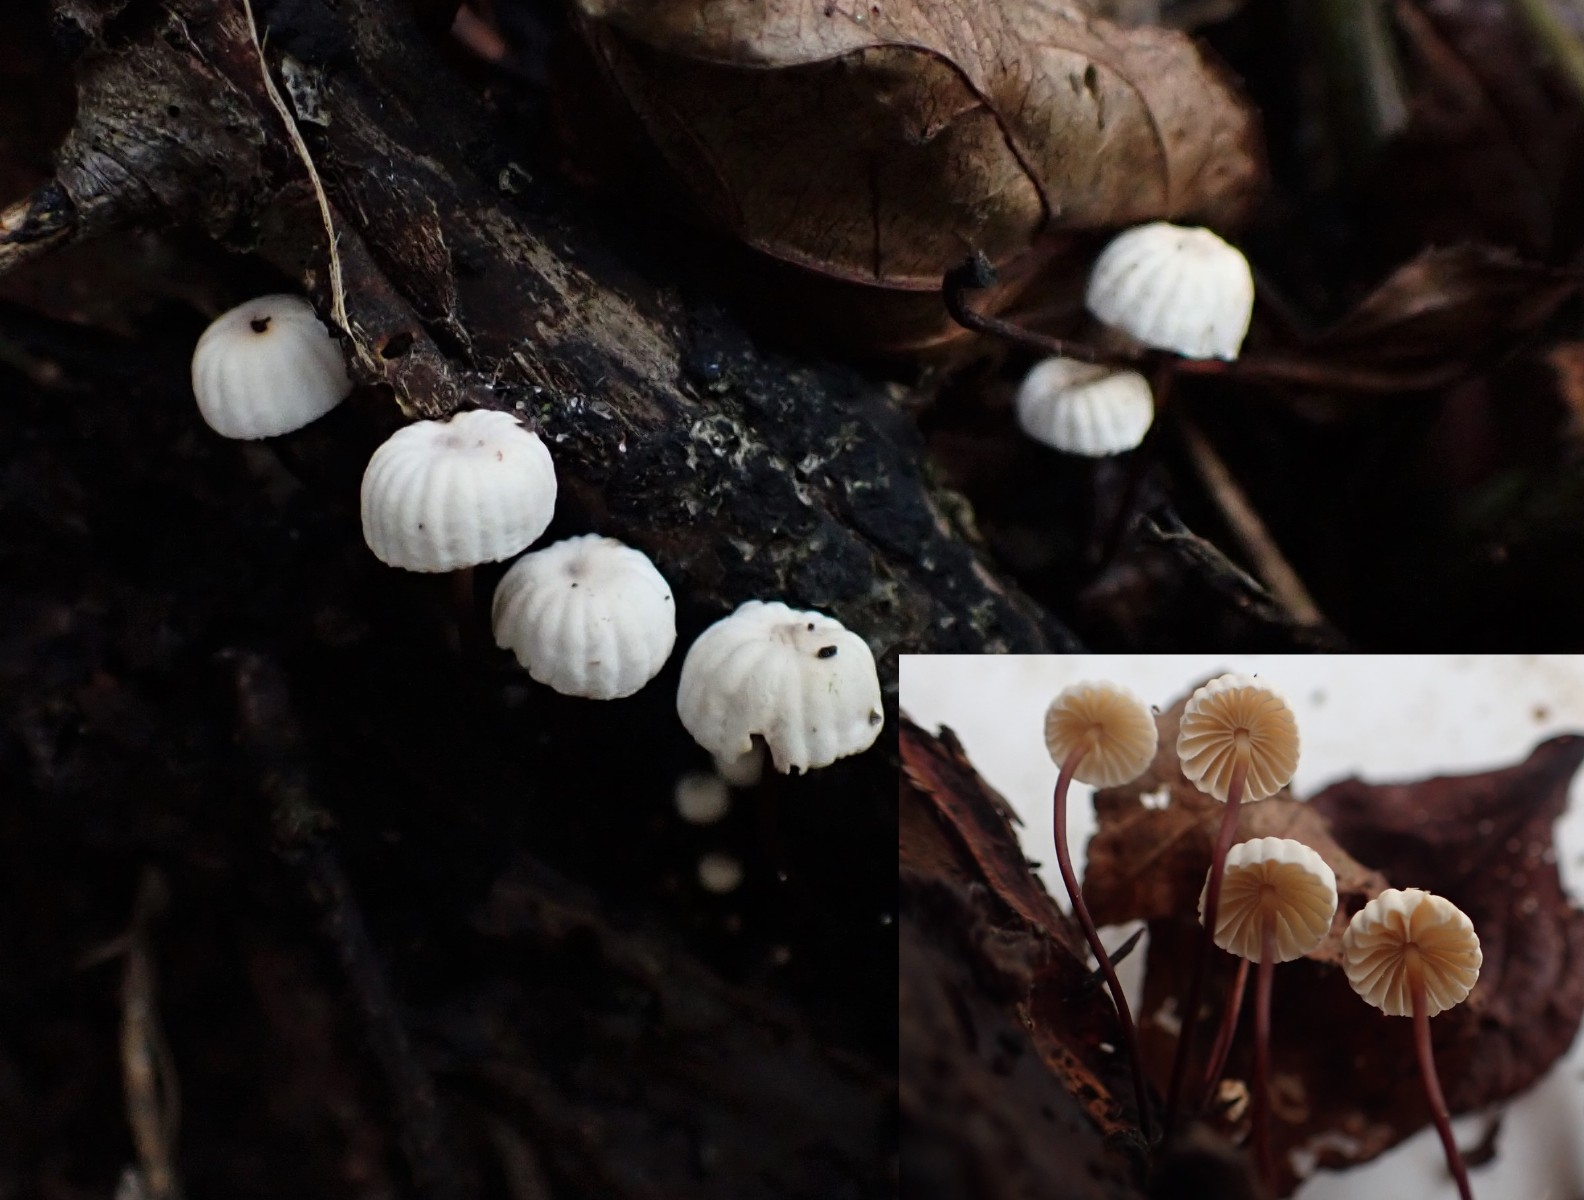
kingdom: Fungi
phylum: Basidiomycota
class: Agaricomycetes
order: Agaricales
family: Marasmiaceae
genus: Marasmius
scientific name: Marasmius rotula
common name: hjul-bruskhat
